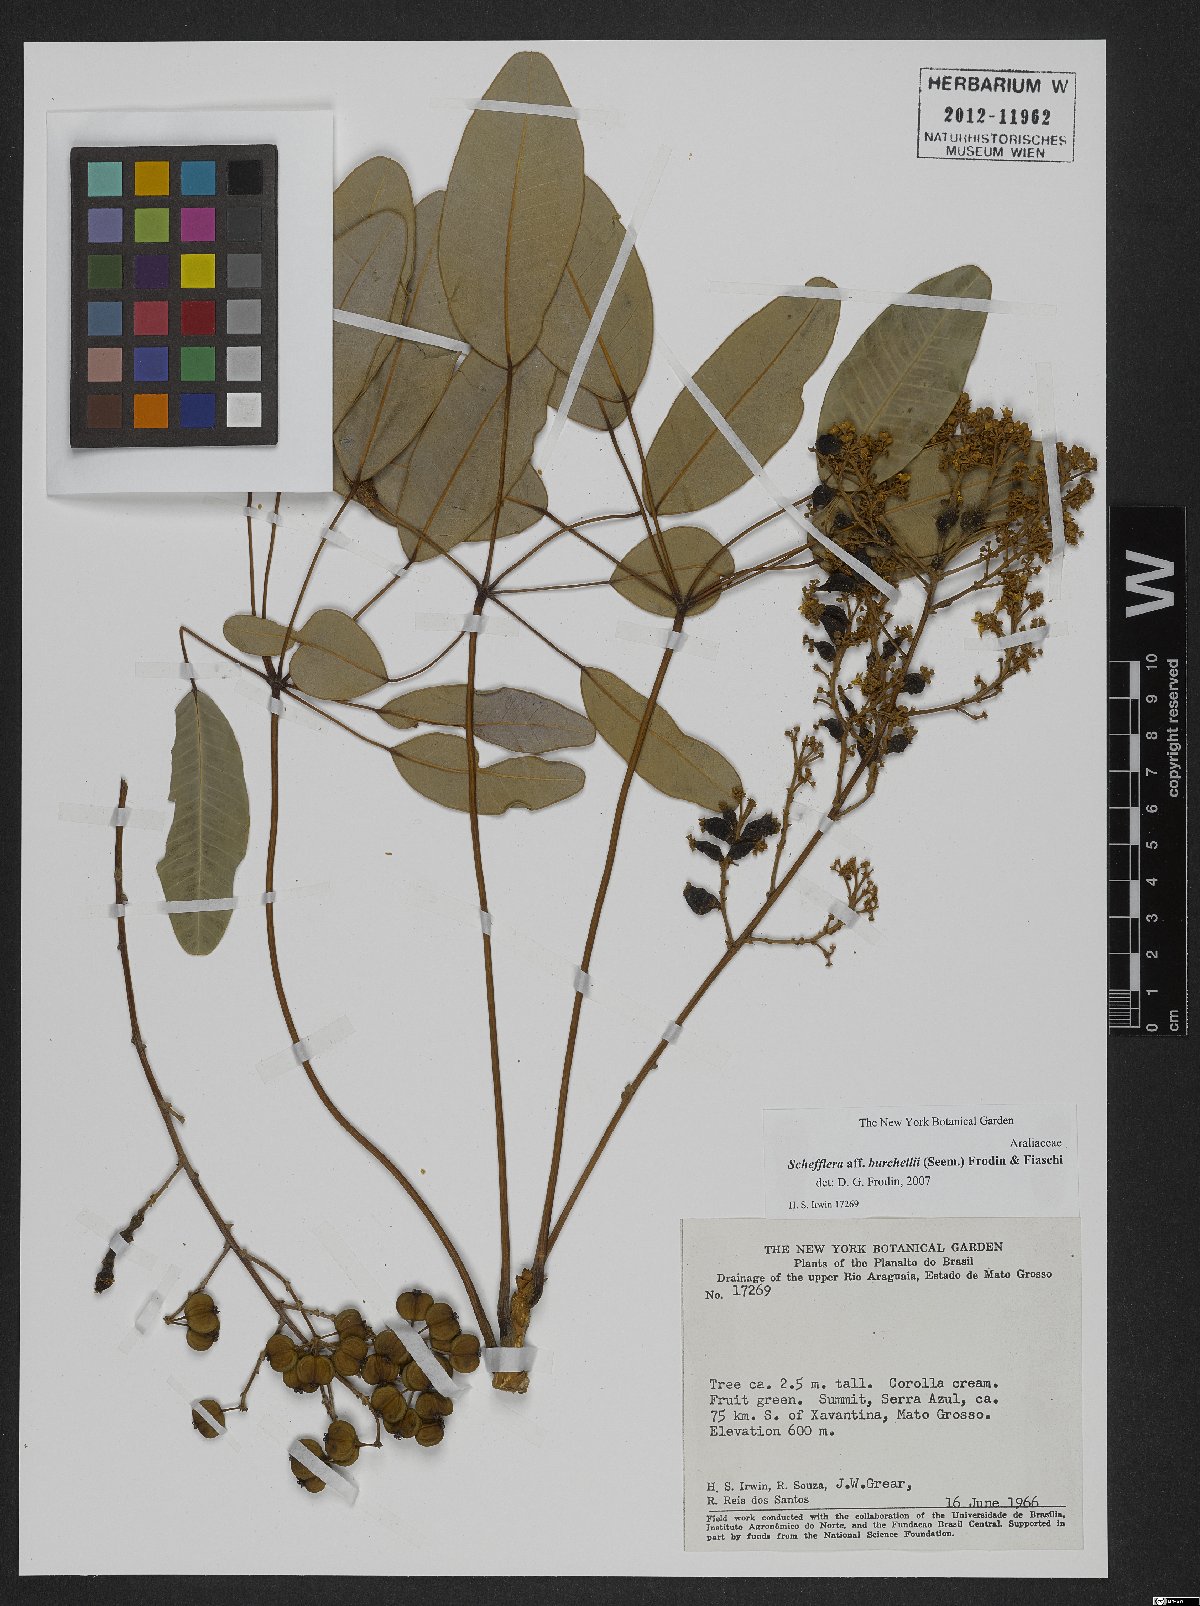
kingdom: Plantae
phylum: Tracheophyta
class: Magnoliopsida
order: Apiales
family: Araliaceae
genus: Didymopanax
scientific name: Didymopanax burchellii
